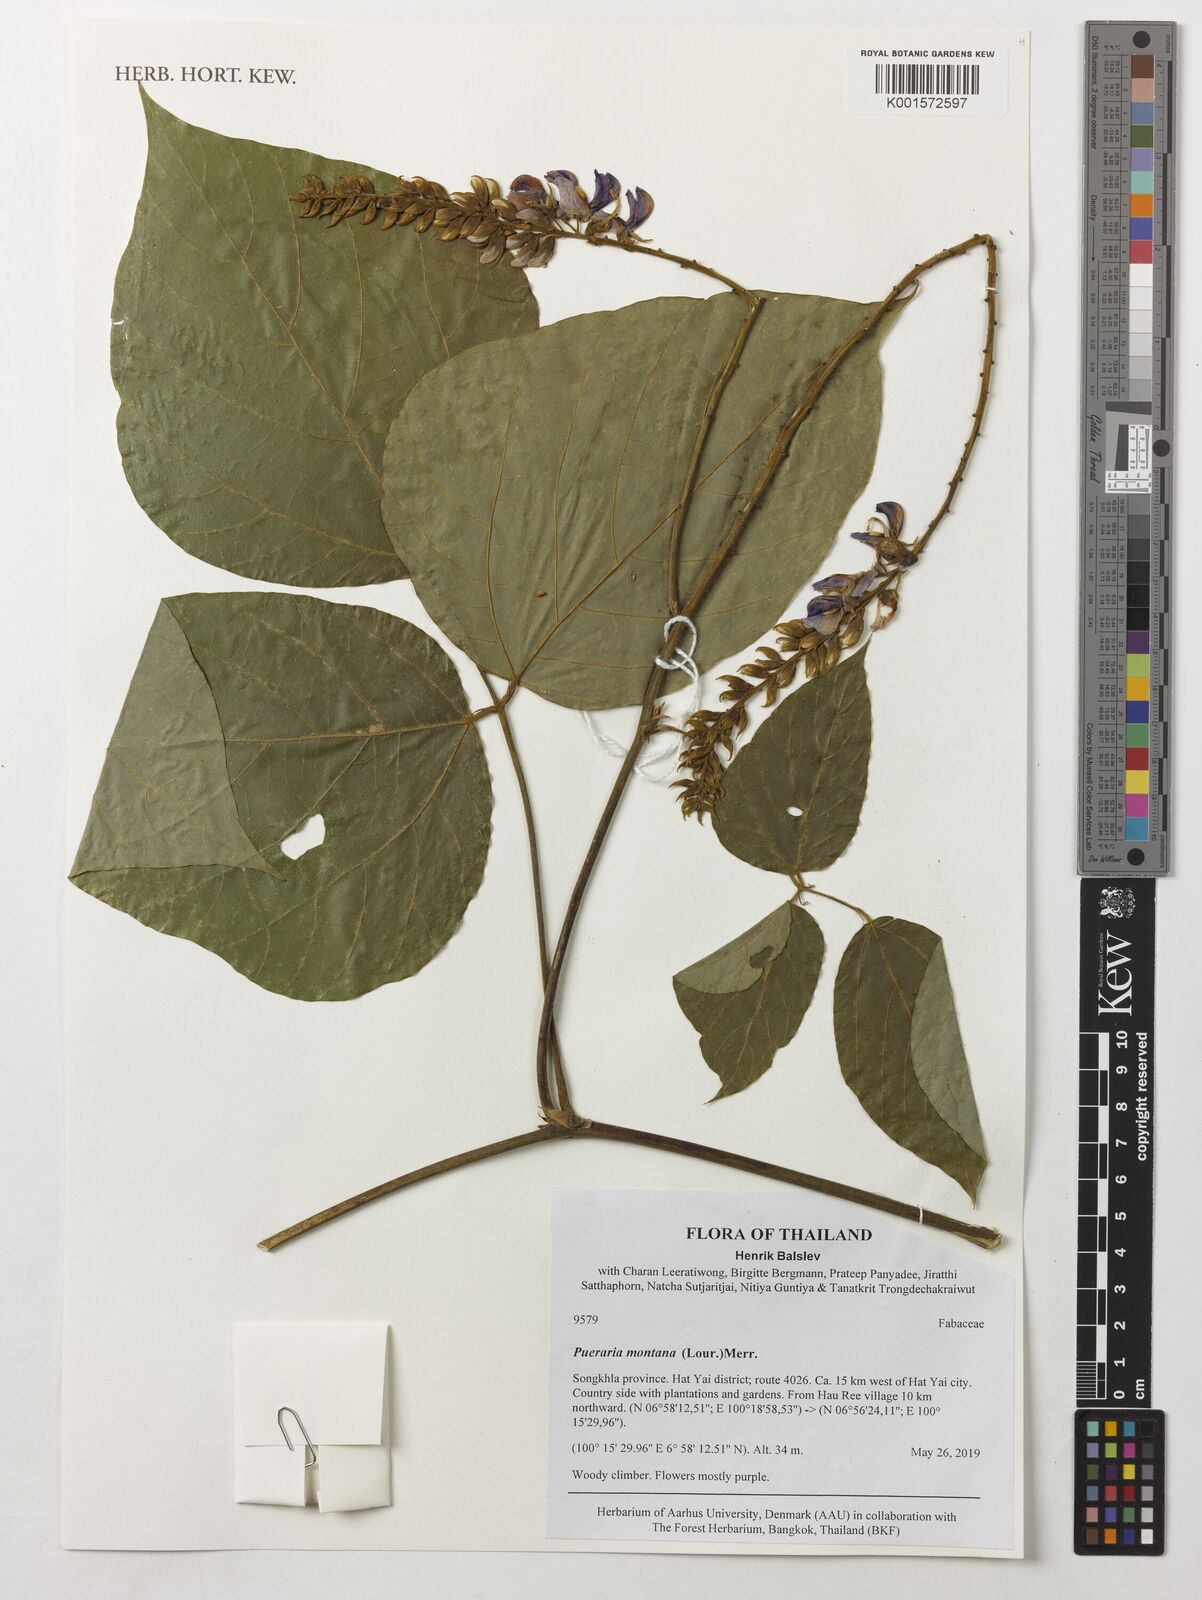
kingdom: Plantae
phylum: Tracheophyta
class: Magnoliopsida
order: Fabales
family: Fabaceae
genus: Pueraria
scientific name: Pueraria montana
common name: Kudzu
